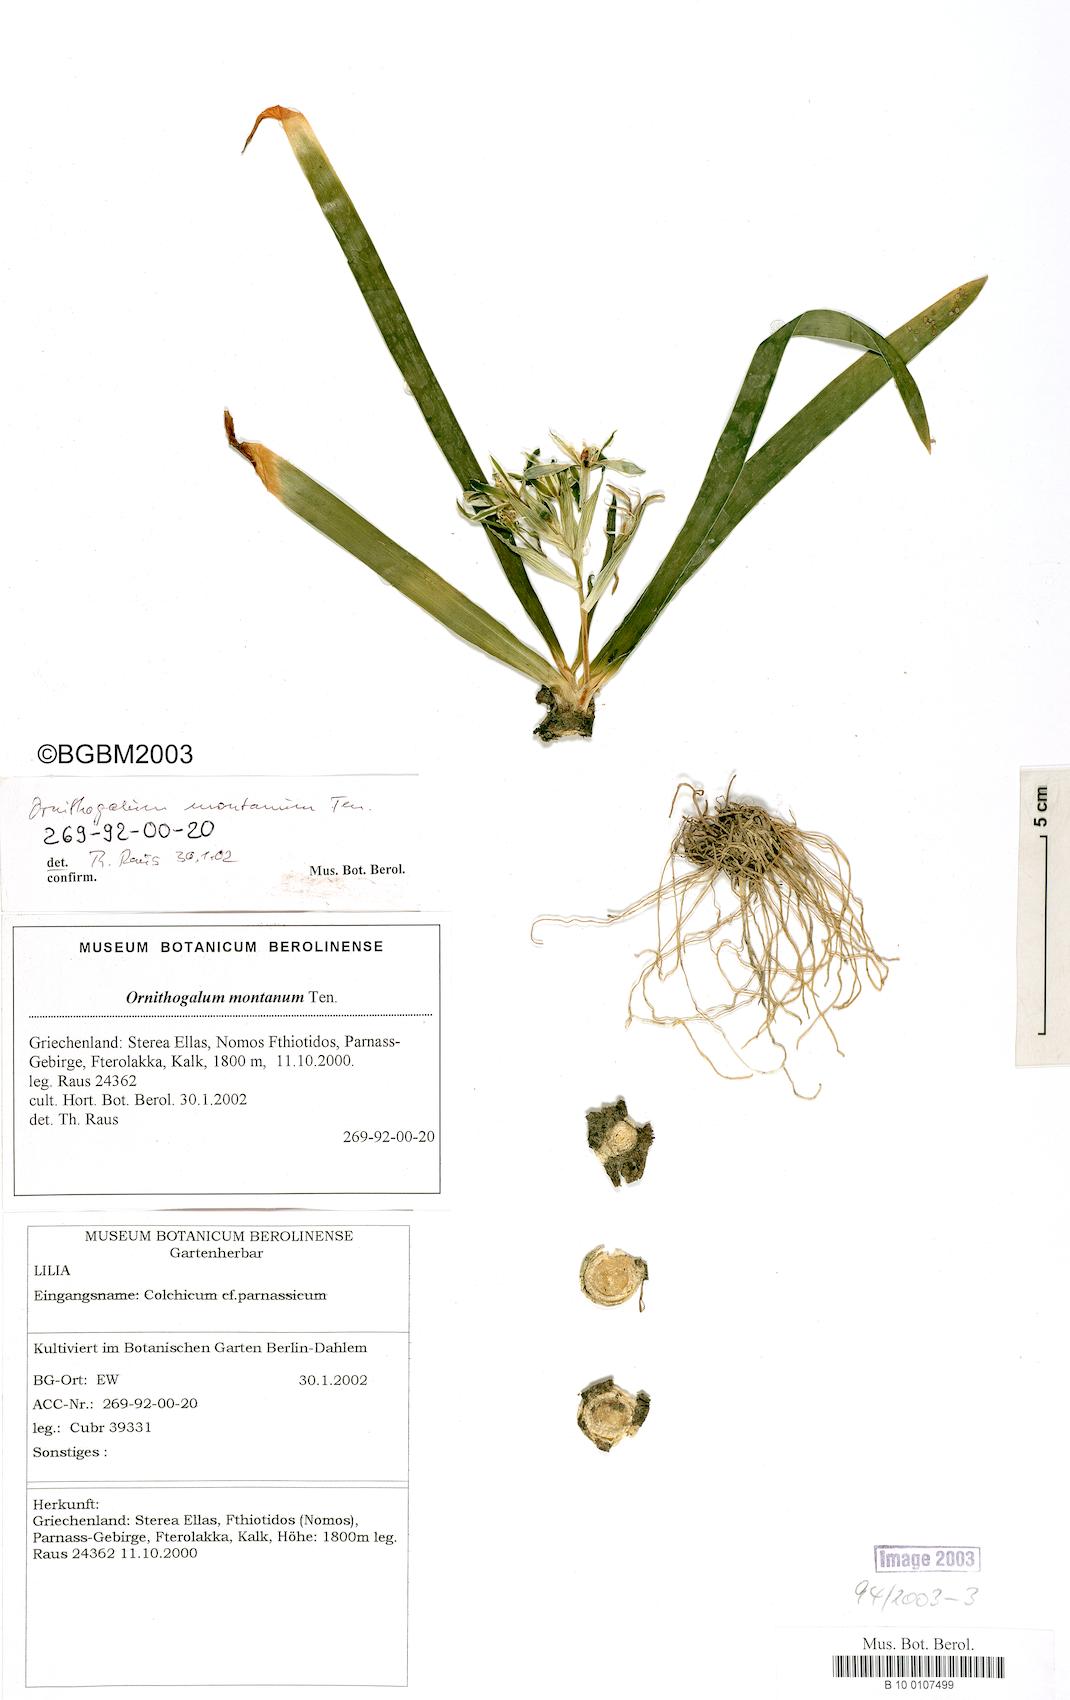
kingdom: Plantae
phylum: Tracheophyta
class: Liliopsida
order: Asparagales
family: Asparagaceae
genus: Ornithogalum
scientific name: Ornithogalum montanum
